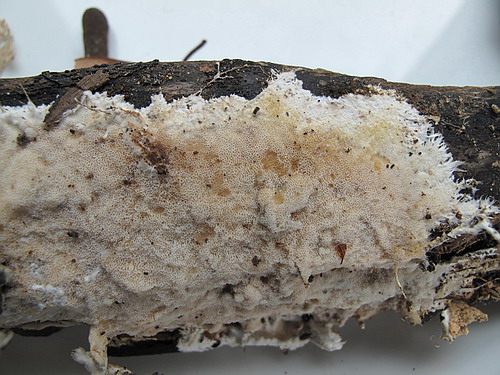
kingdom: Fungi
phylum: Basidiomycota
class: Agaricomycetes
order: Agaricales
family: Porotheleaceae
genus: Porotheleum
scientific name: Porotheleum fimbriatum
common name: poreskål
